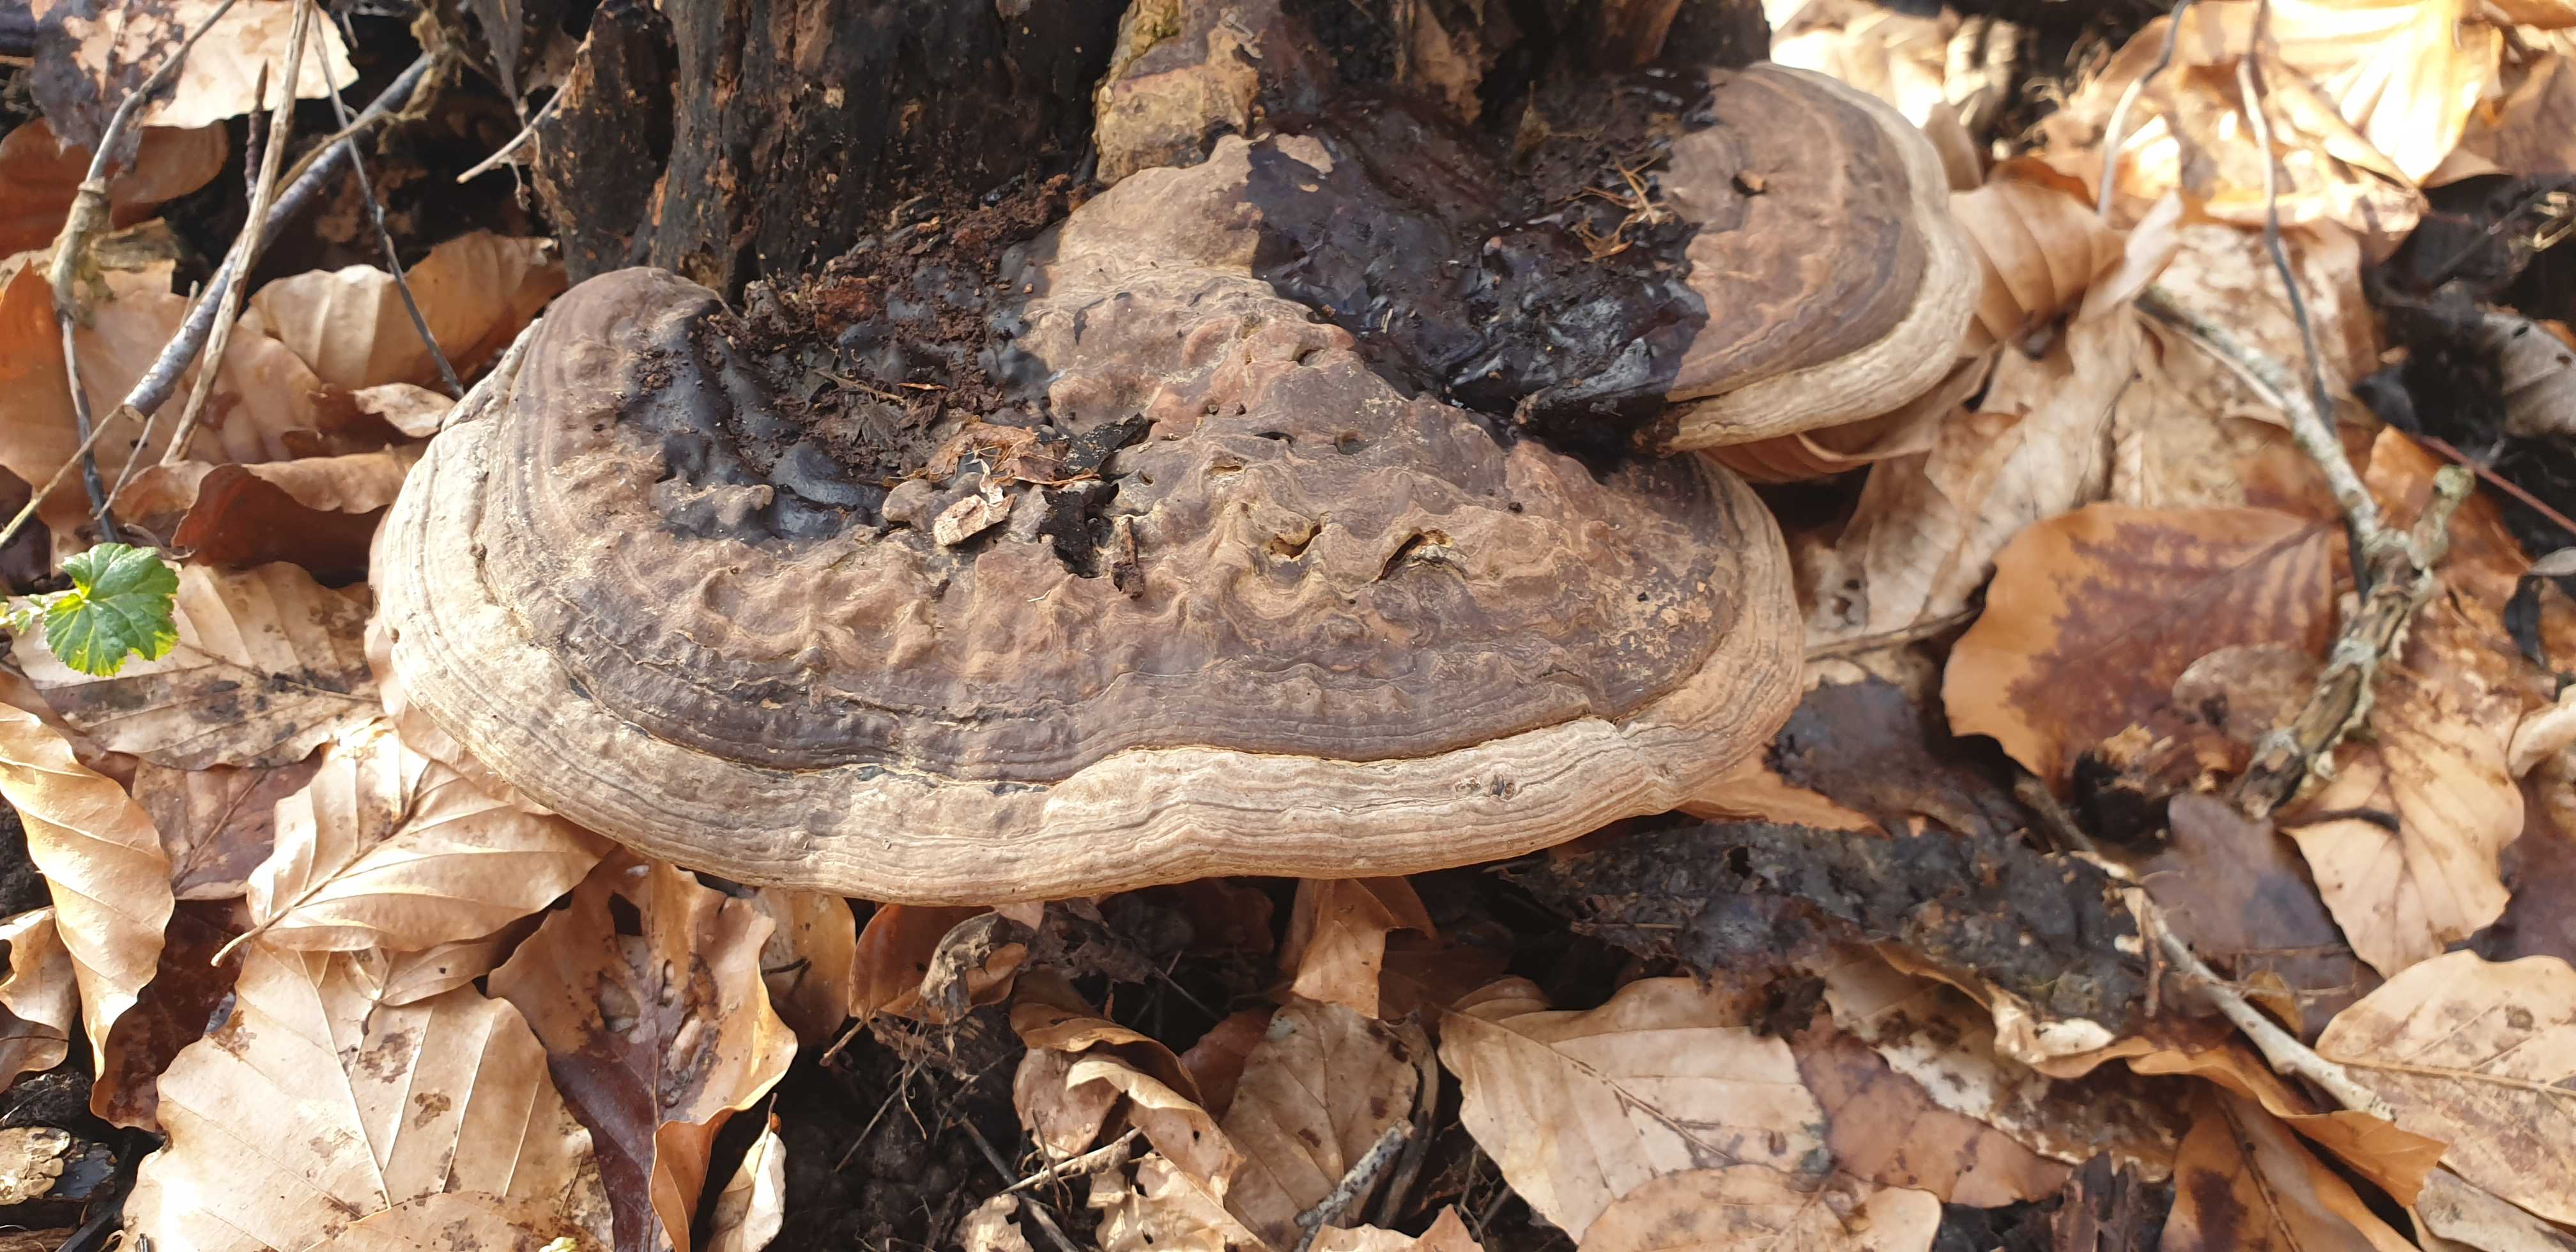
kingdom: Fungi
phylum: Basidiomycota
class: Agaricomycetes
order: Polyporales
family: Polyporaceae
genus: Ganoderma
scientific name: Ganoderma applanatum
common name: flad lakporesvamp
